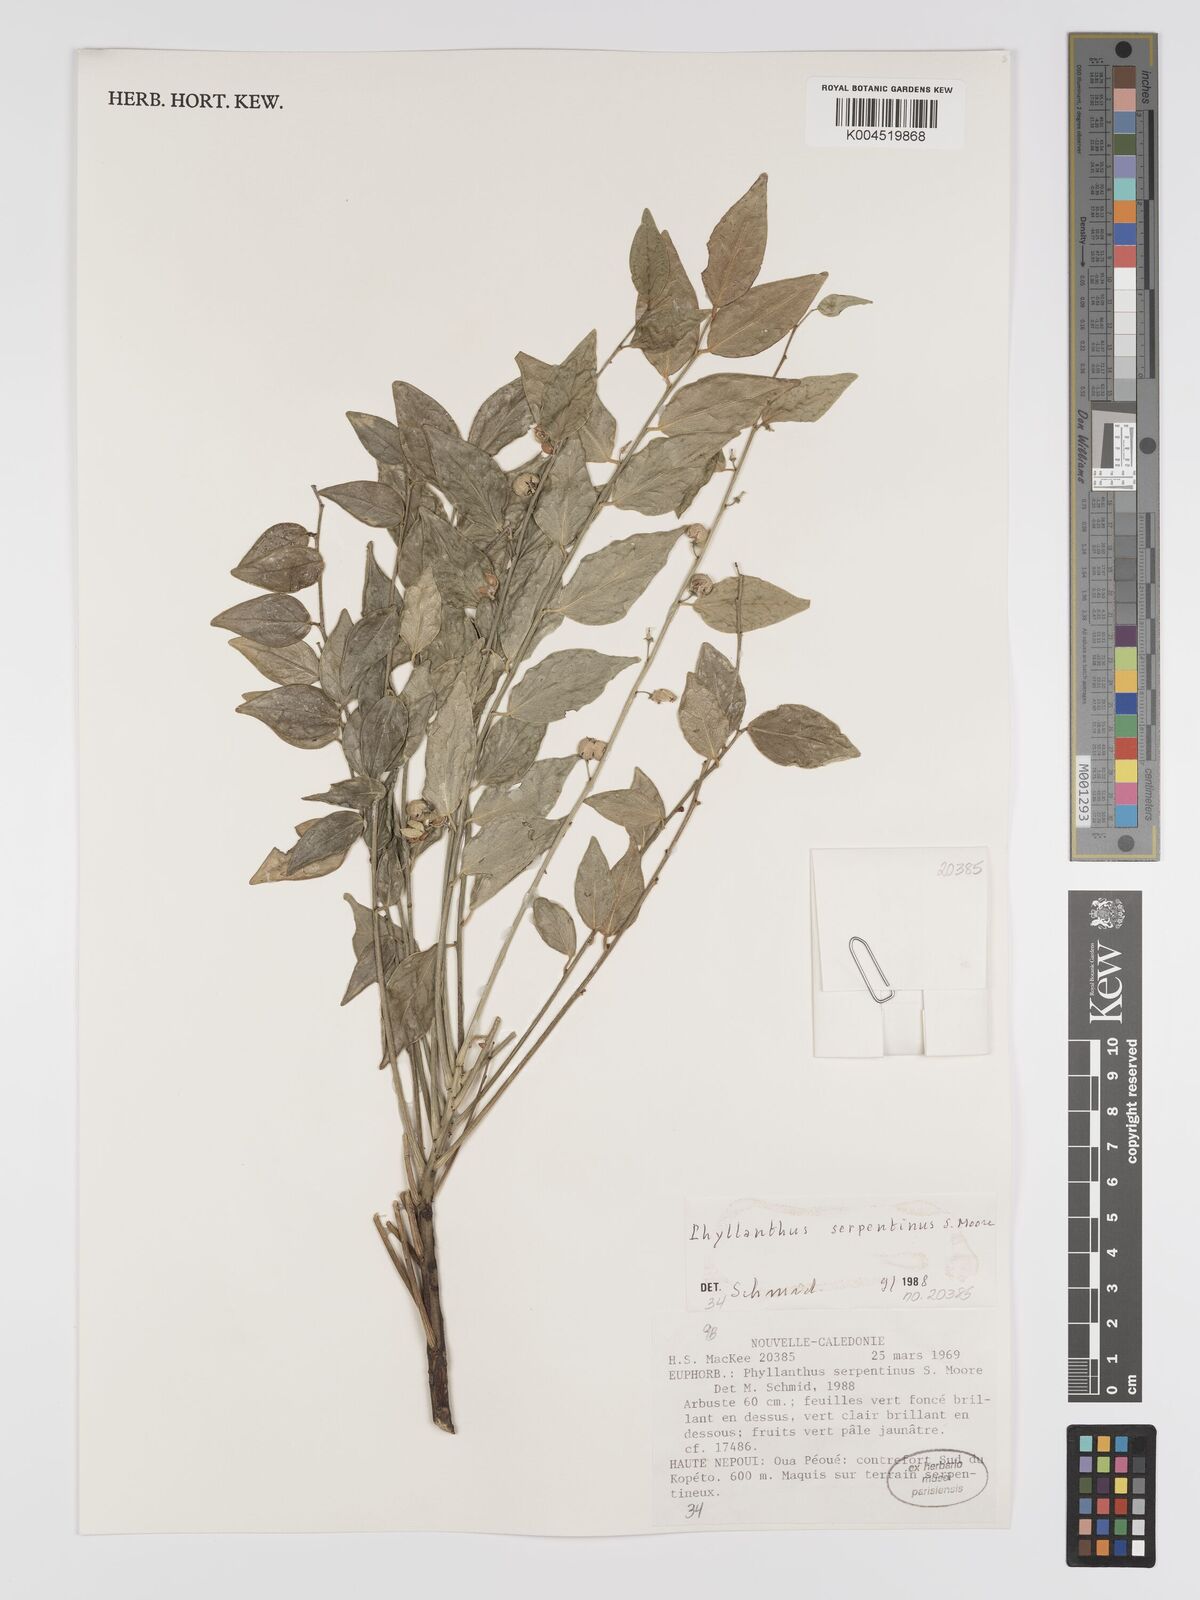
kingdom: Plantae
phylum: Tracheophyta
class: Magnoliopsida
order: Malpighiales
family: Phyllanthaceae
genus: Phyllanthus
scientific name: Phyllanthus serpentinus
